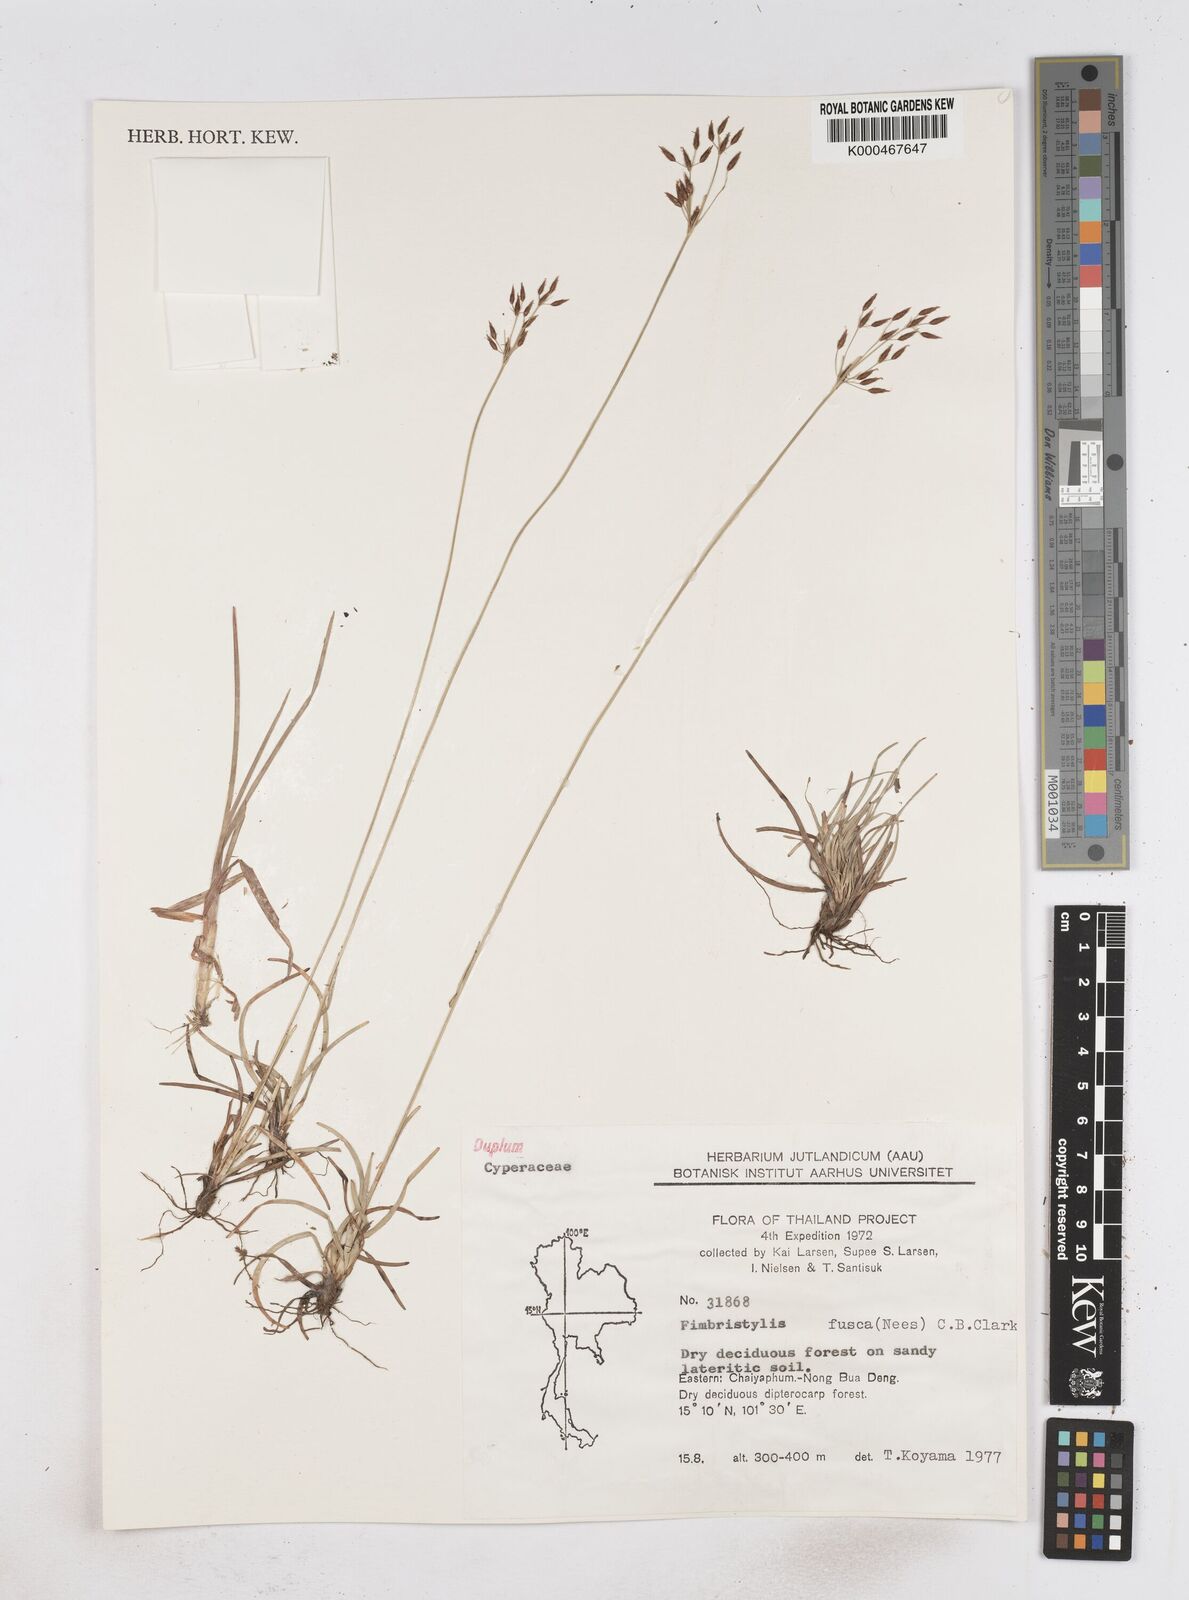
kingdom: Plantae
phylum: Tracheophyta
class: Liliopsida
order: Poales
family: Cyperaceae
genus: Fimbristylis
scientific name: Fimbristylis fusca
